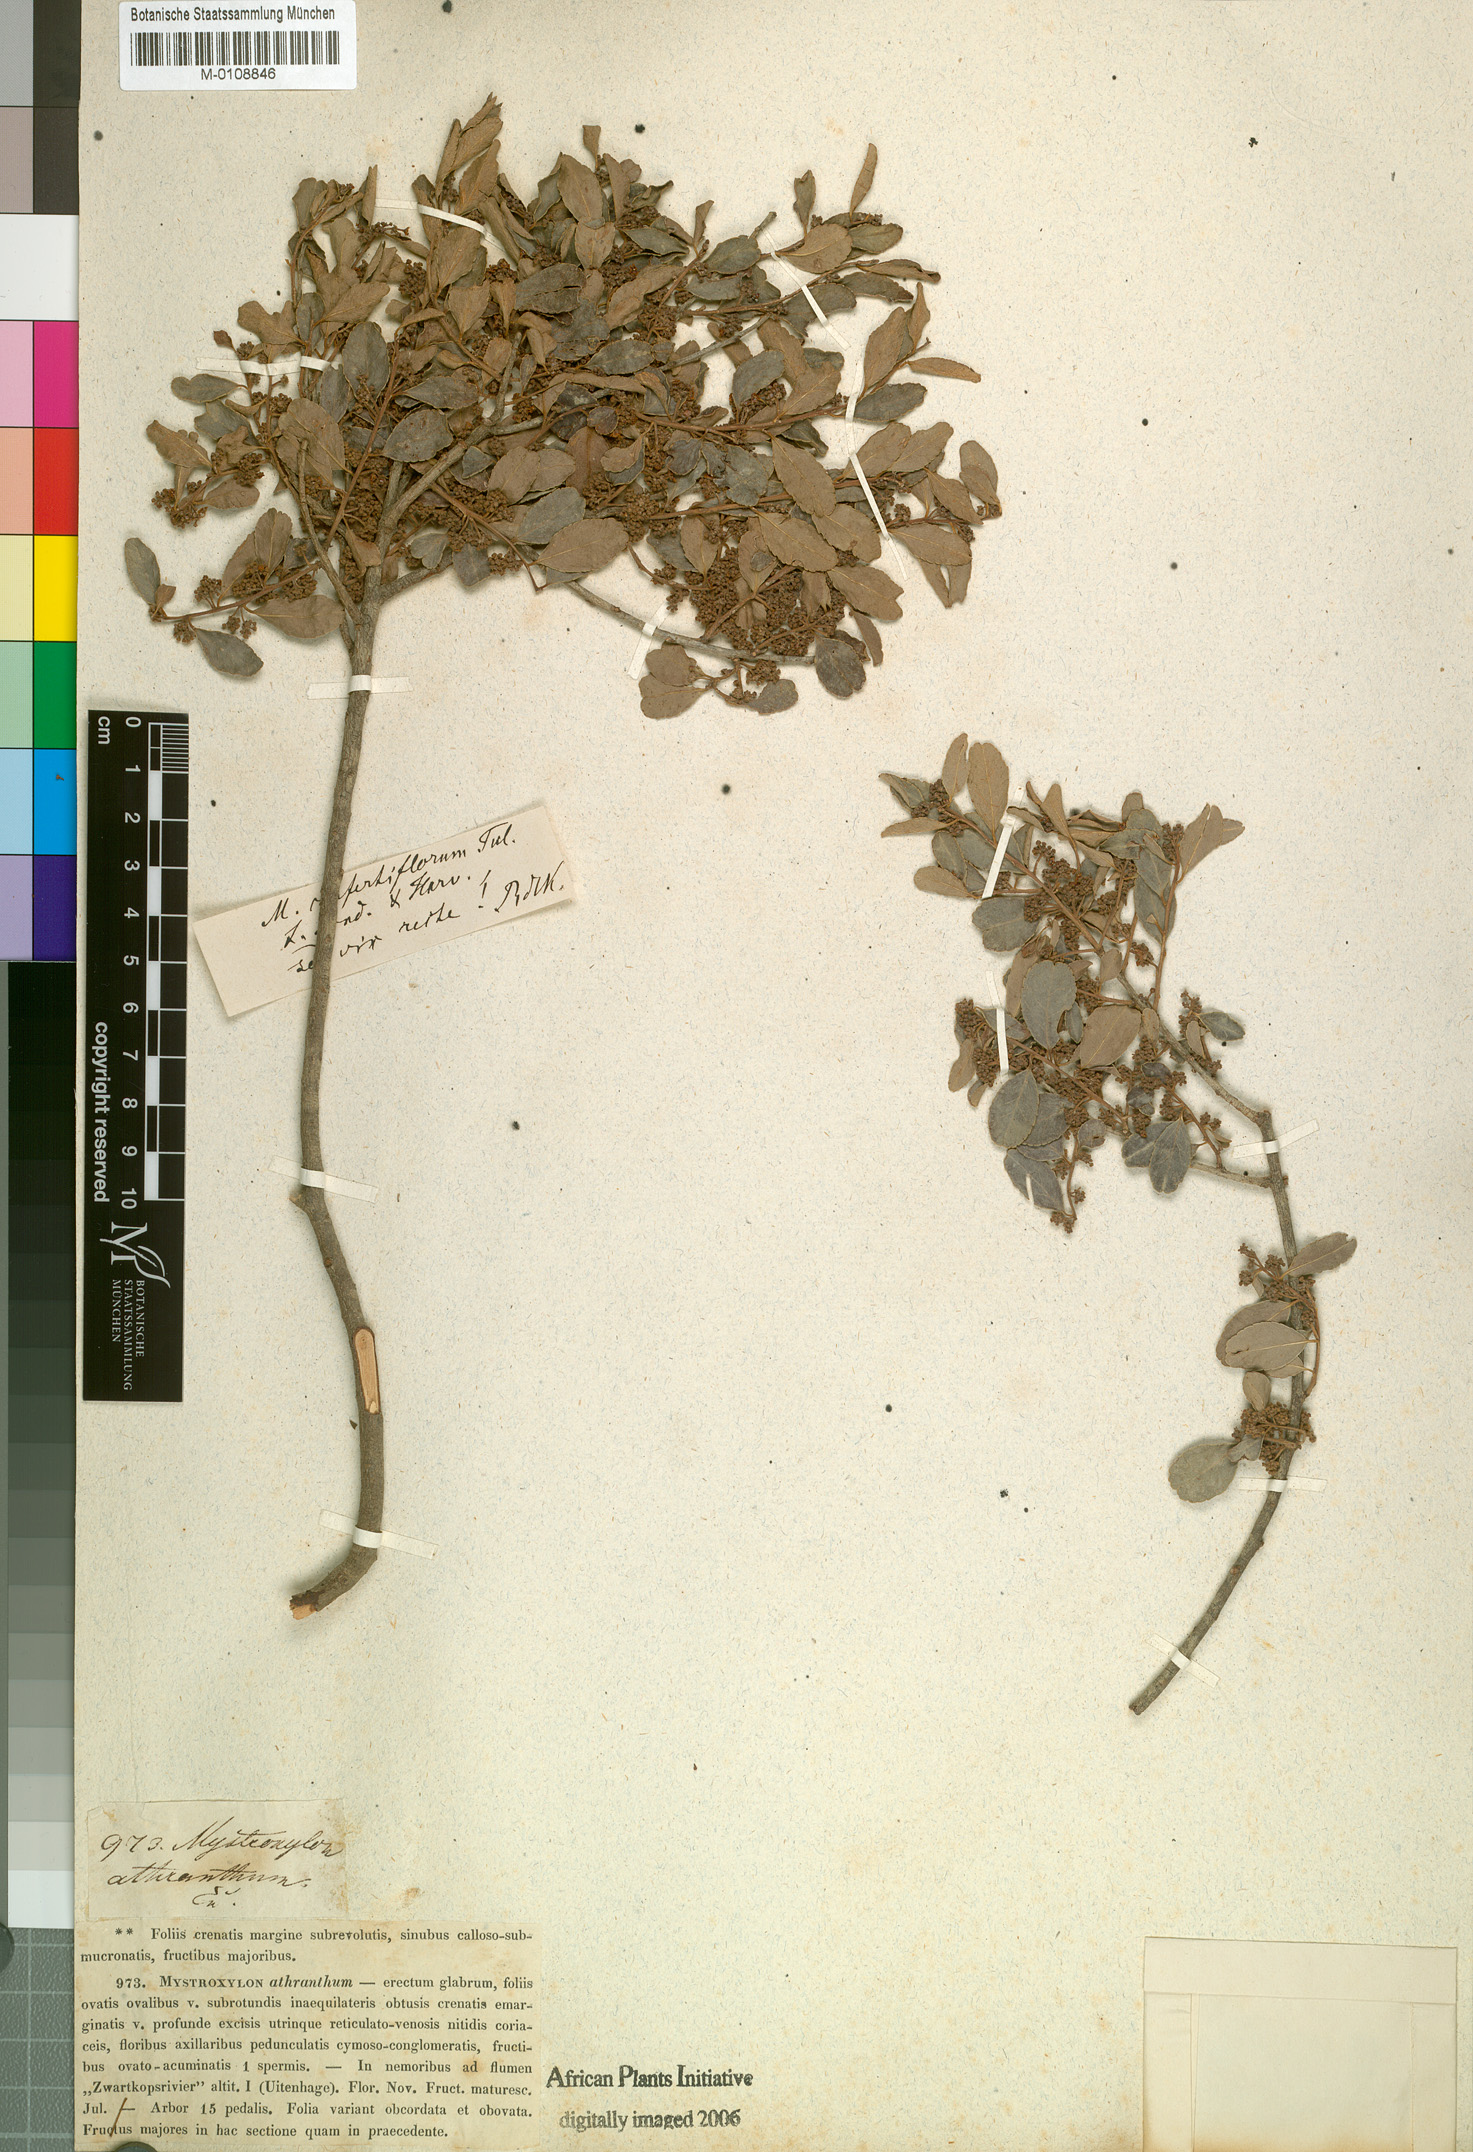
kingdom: Plantae
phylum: Tracheophyta
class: Magnoliopsida
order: Celastrales
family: Celastraceae
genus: Mystroxylon
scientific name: Mystroxylon aethiopicum
